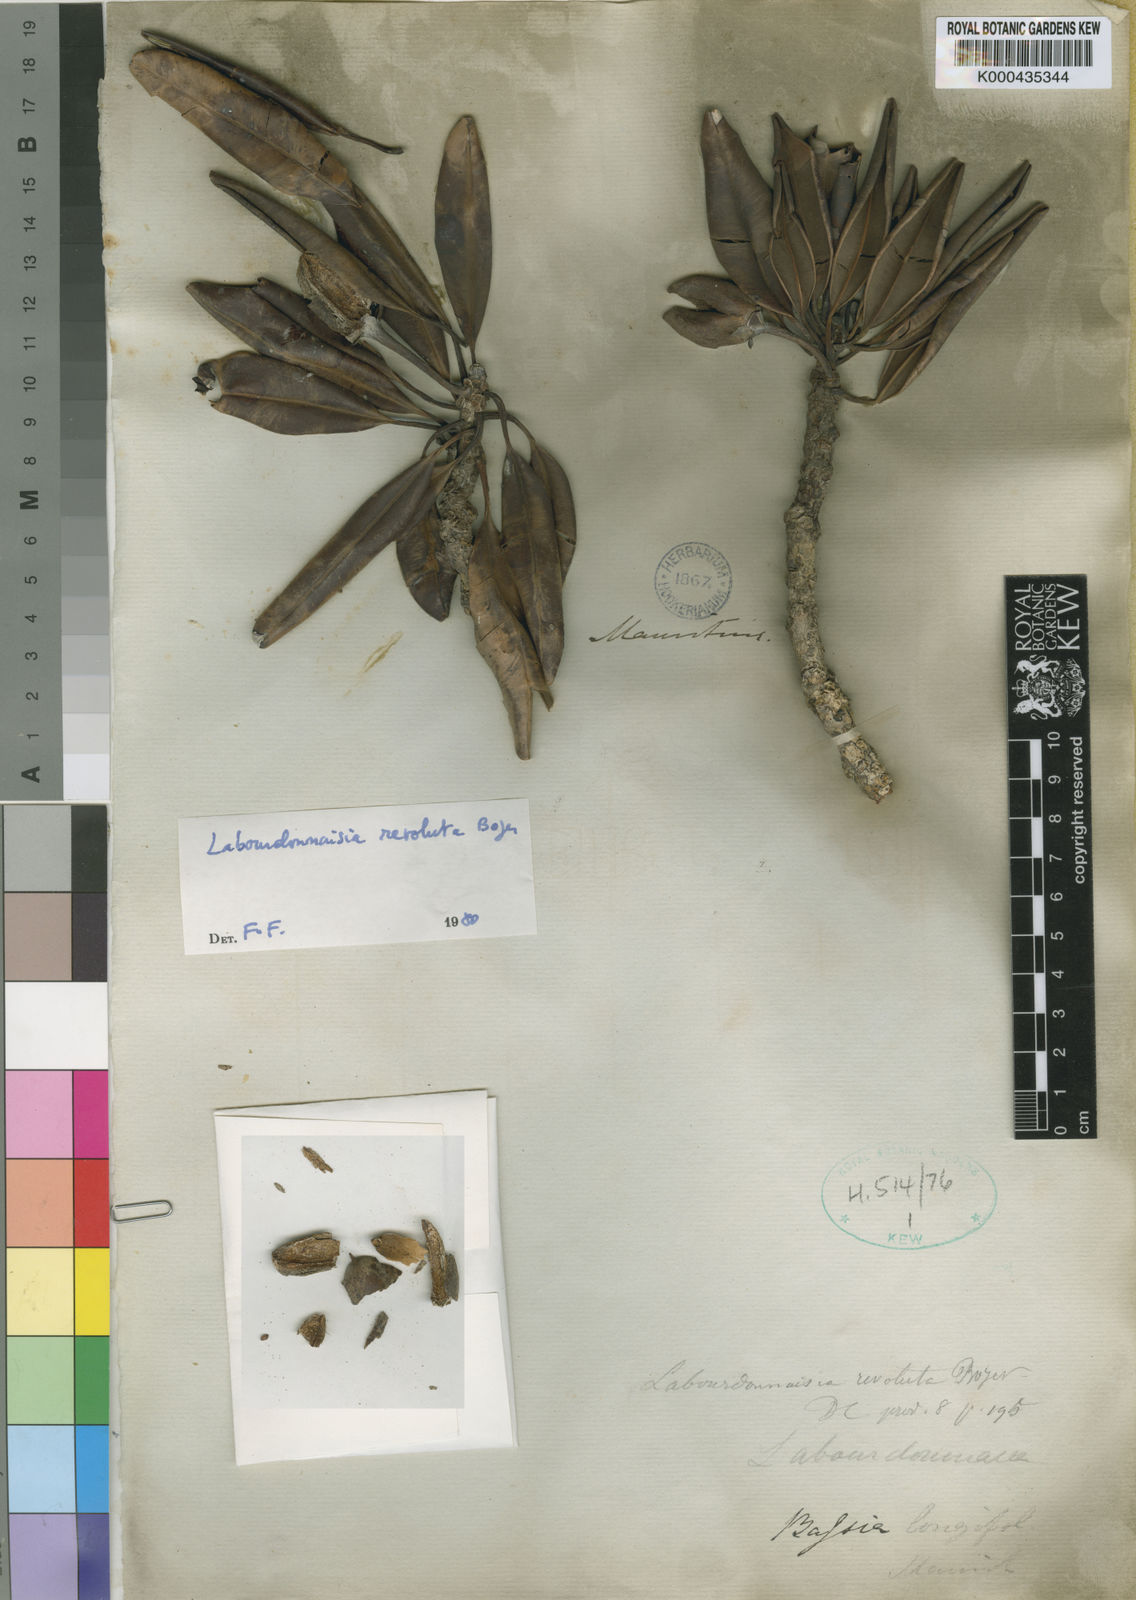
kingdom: Plantae
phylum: Tracheophyta
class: Magnoliopsida
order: Ericales
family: Sapotaceae
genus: Labourdonnaisia
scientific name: Labourdonnaisia revoluta
